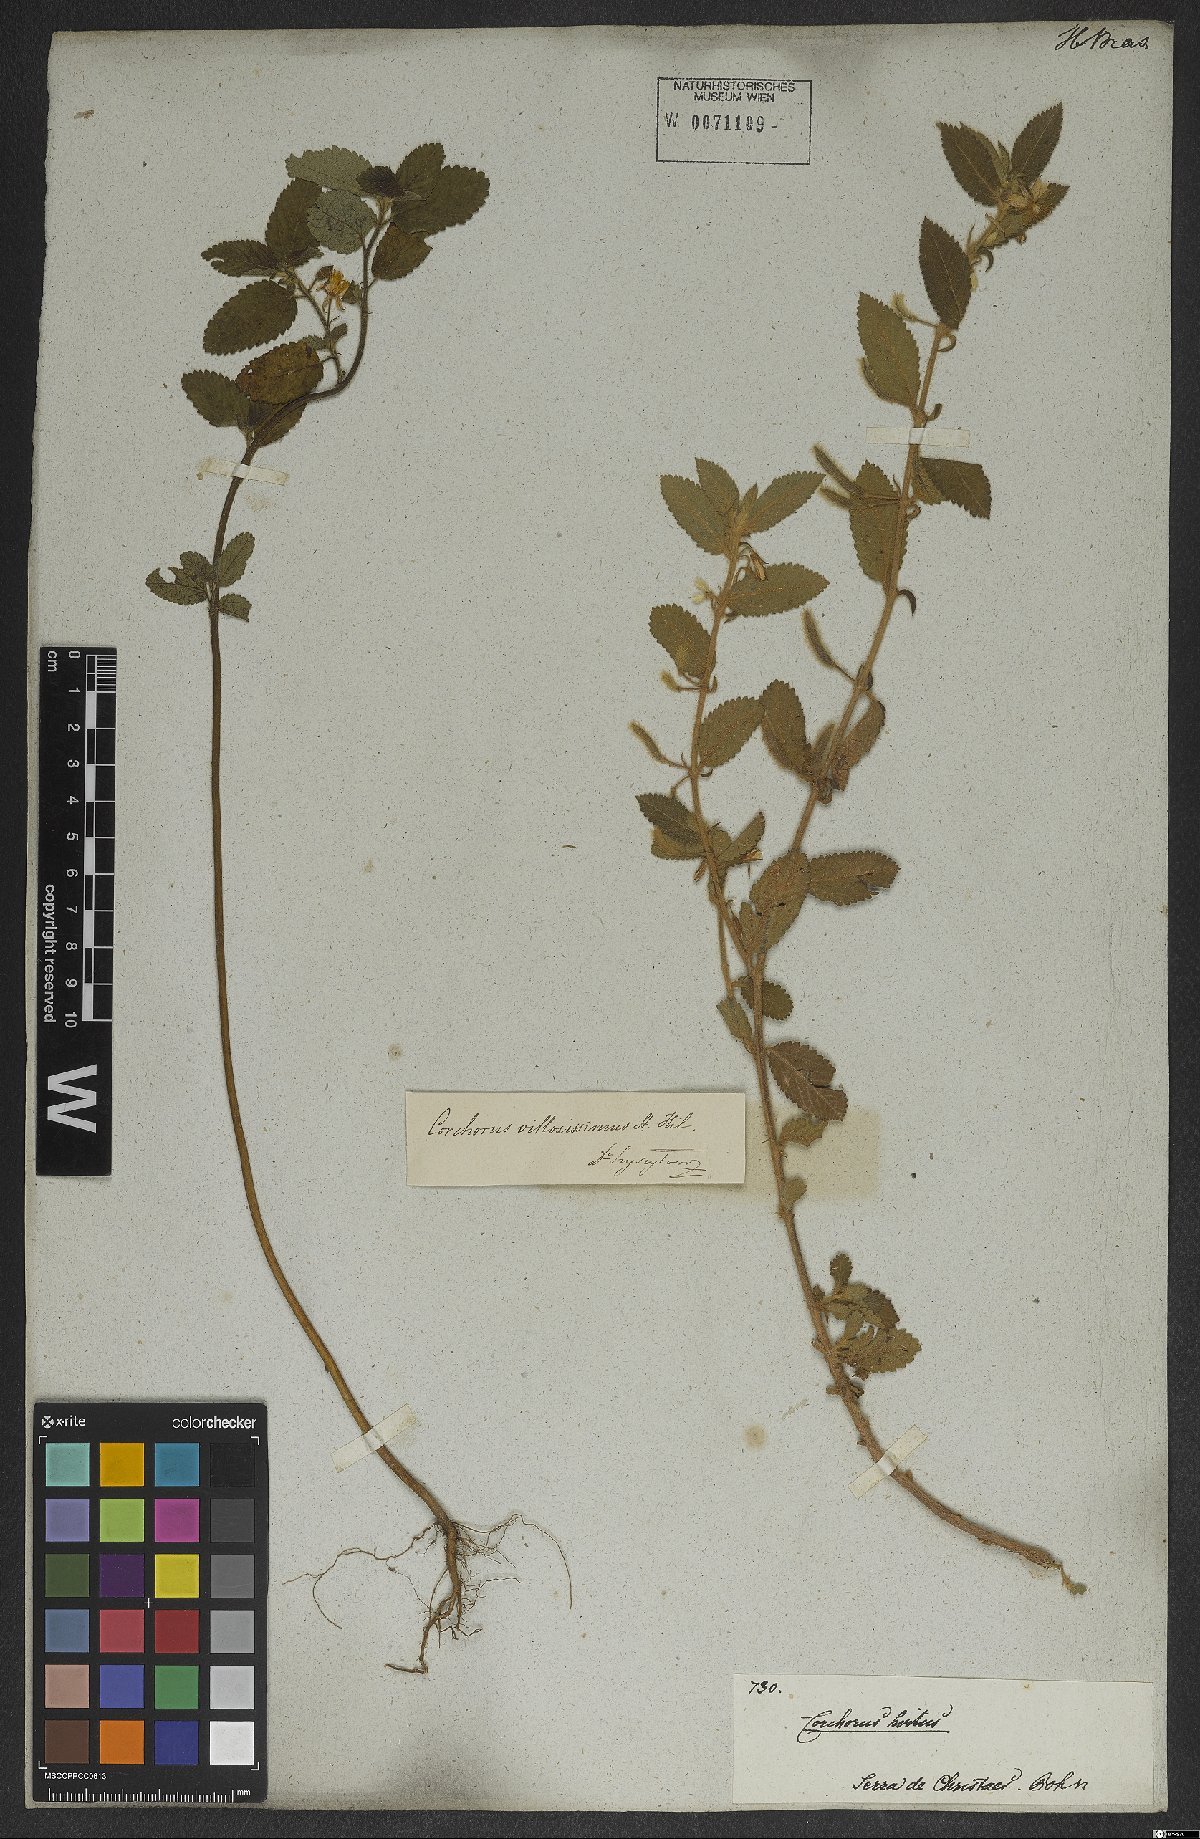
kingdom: Plantae
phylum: Tracheophyta
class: Magnoliopsida
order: Malvales
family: Malvaceae
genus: Corchorus
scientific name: Corchorus hirtus
